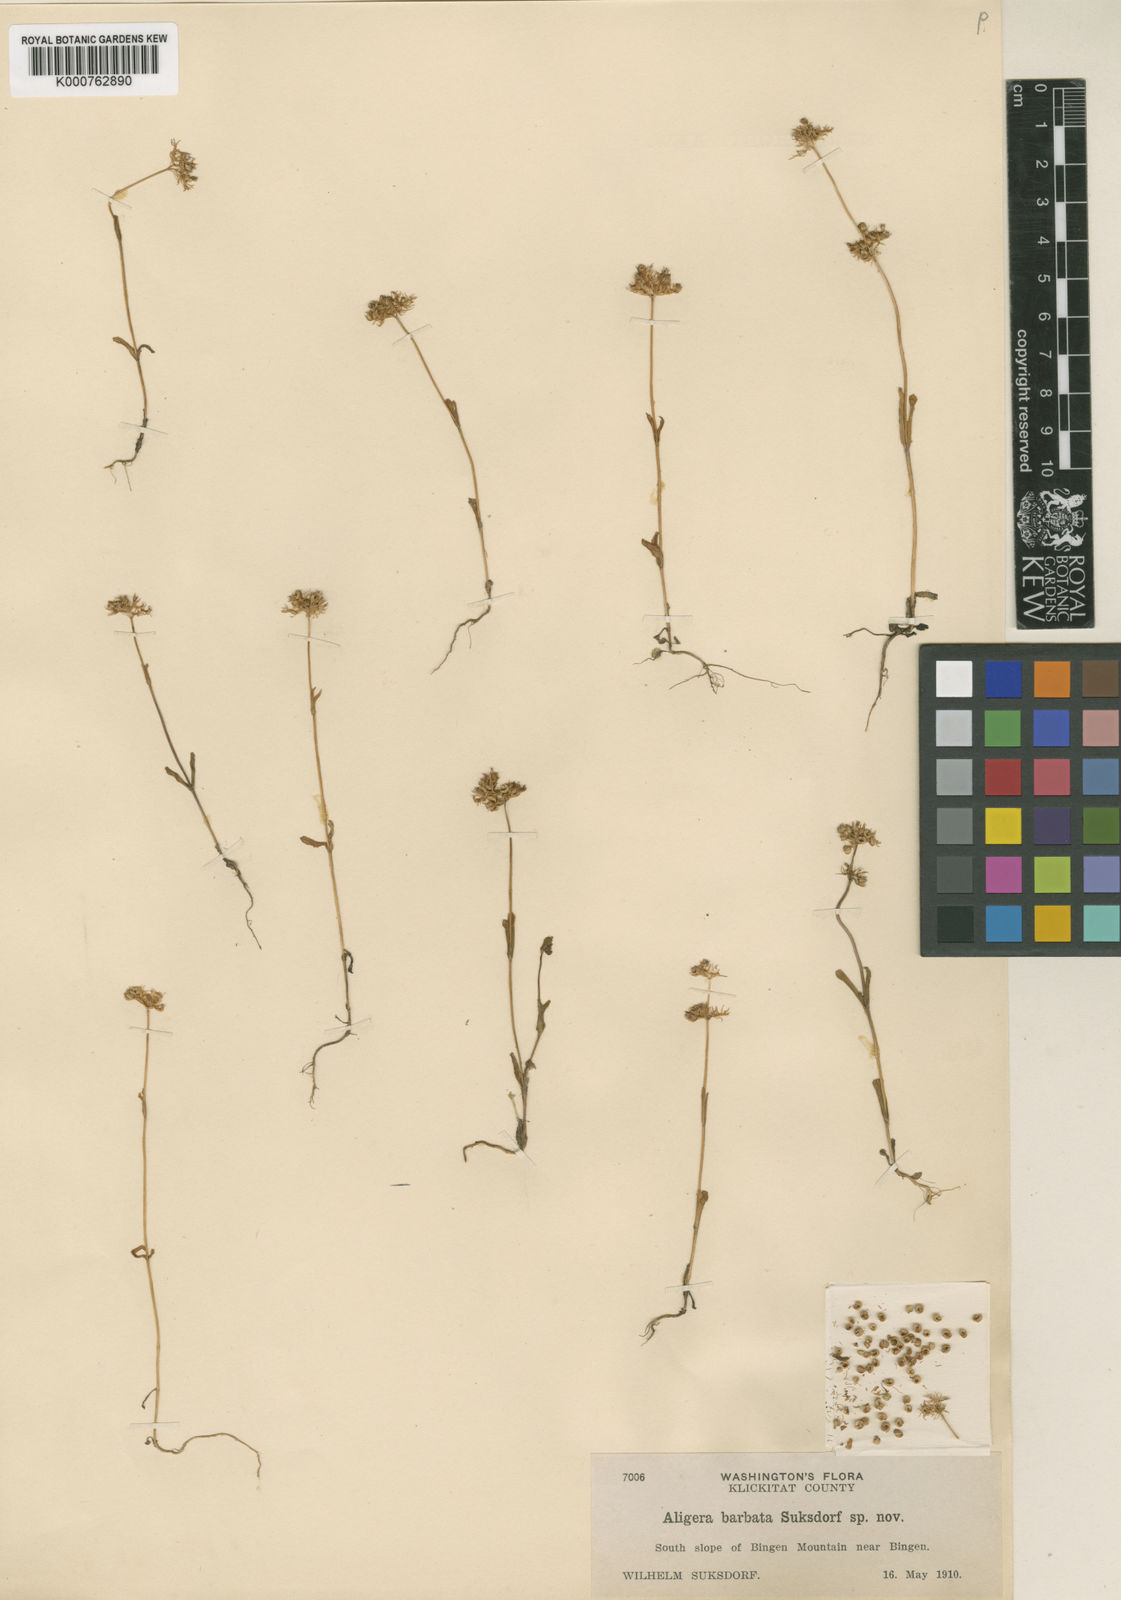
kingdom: Plantae
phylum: Tracheophyta
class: Magnoliopsida
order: Dipsacales
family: Caprifoliaceae
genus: Plectritis
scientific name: Plectritis ciliosa
